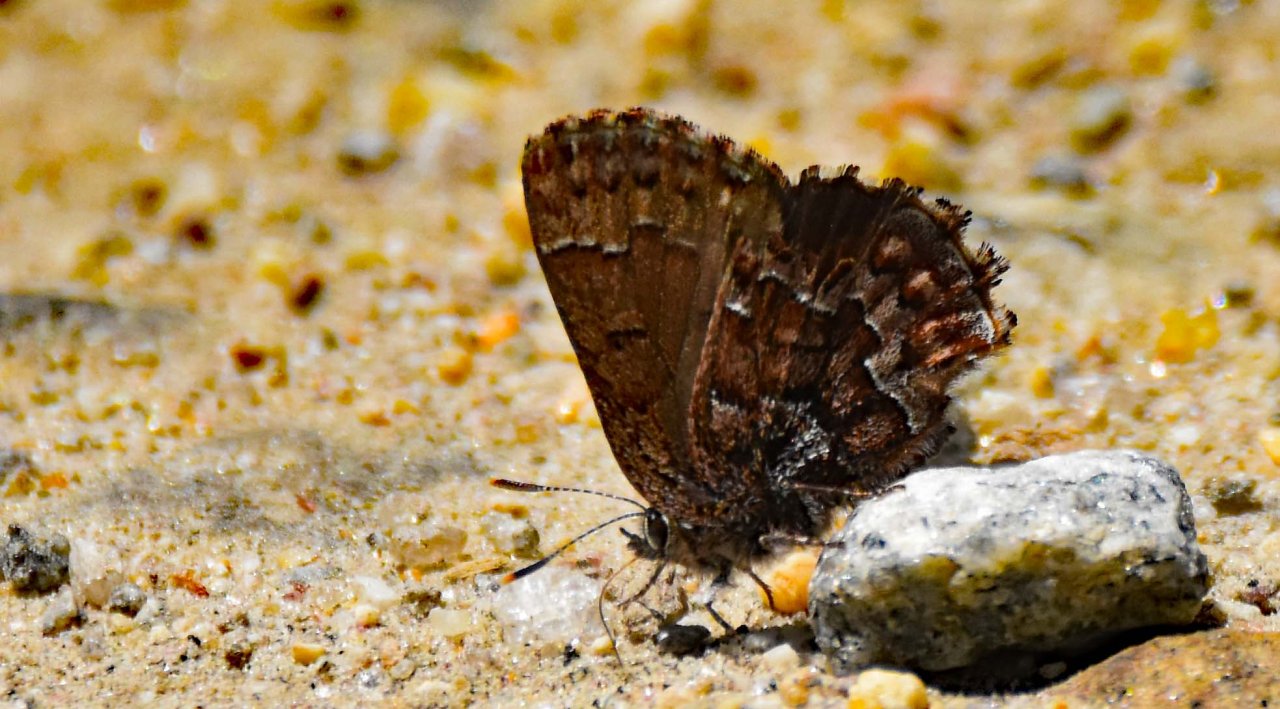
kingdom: Animalia
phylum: Arthropoda
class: Insecta
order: Lepidoptera
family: Lycaenidae
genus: Incisalia
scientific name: Incisalia niphon
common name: Eastern Pine Elfin
